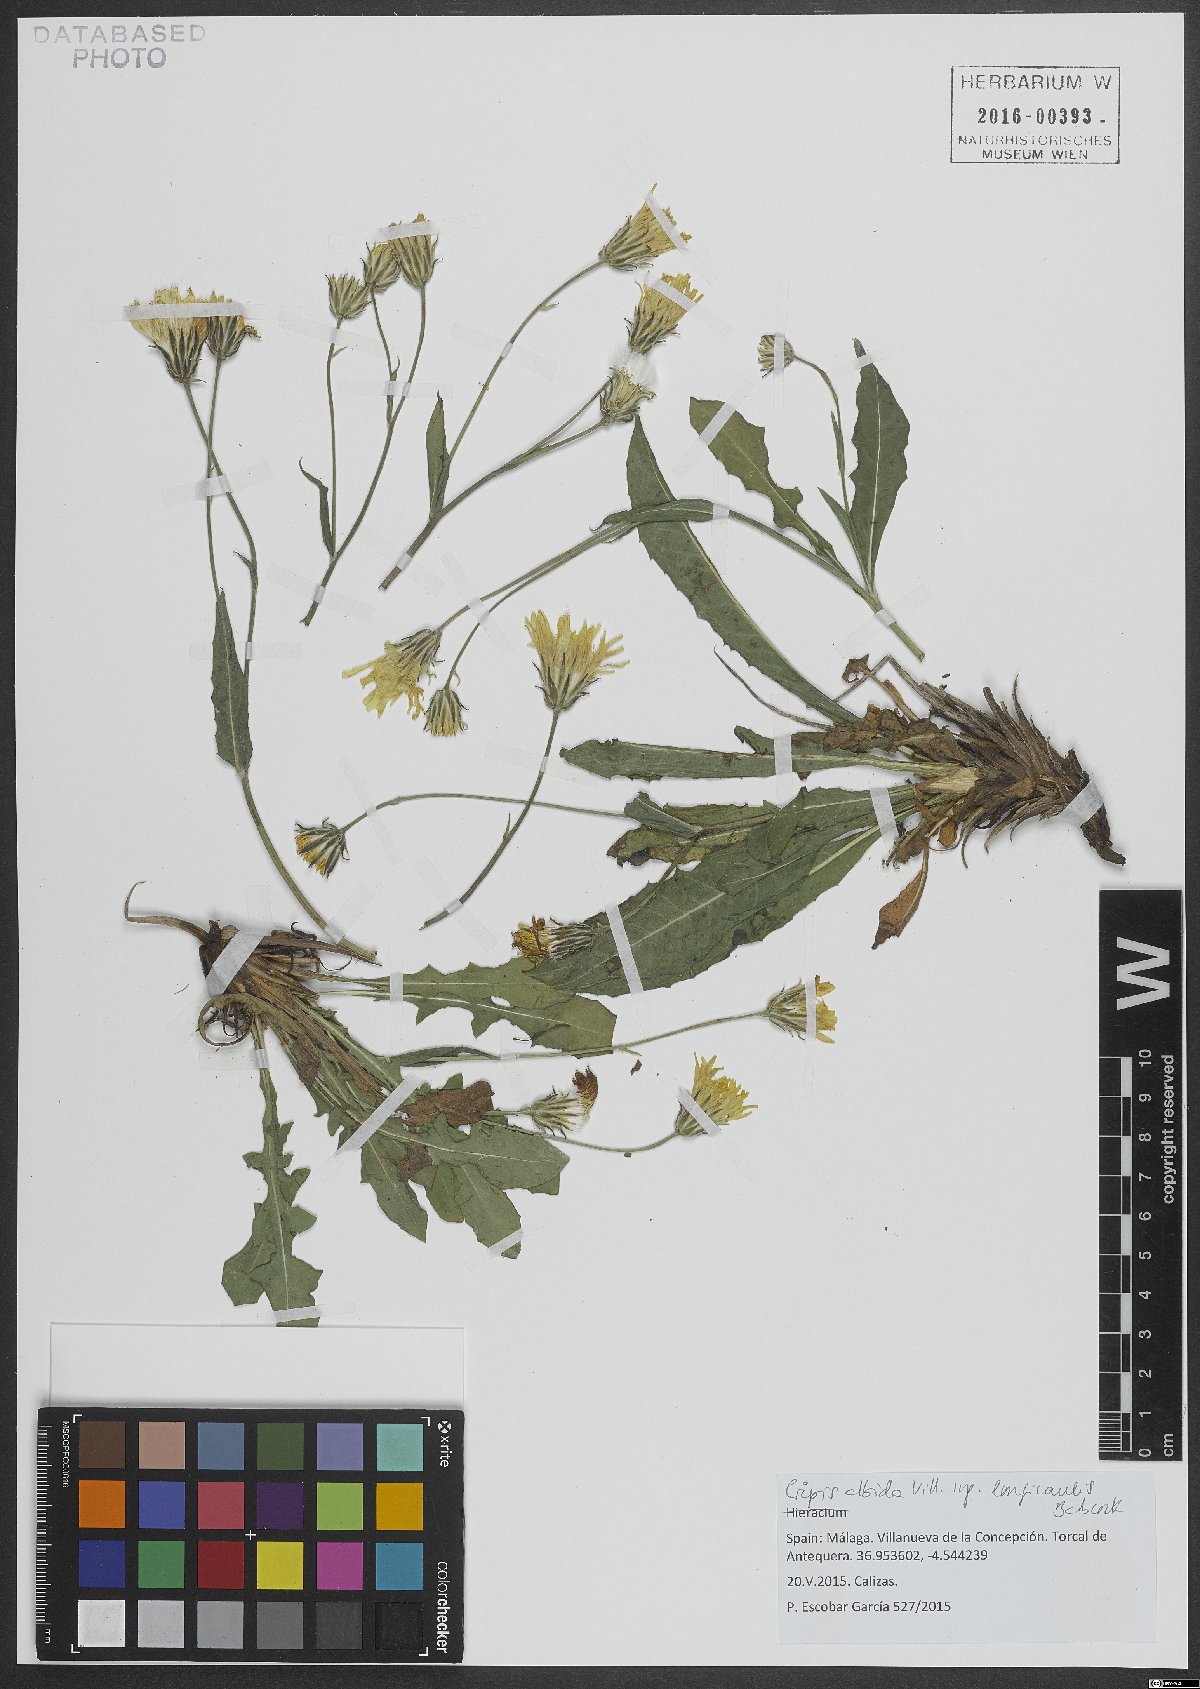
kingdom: Plantae
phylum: Tracheophyta
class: Magnoliopsida
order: Asterales
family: Asteraceae
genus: Crepis
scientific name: Crepis albida
